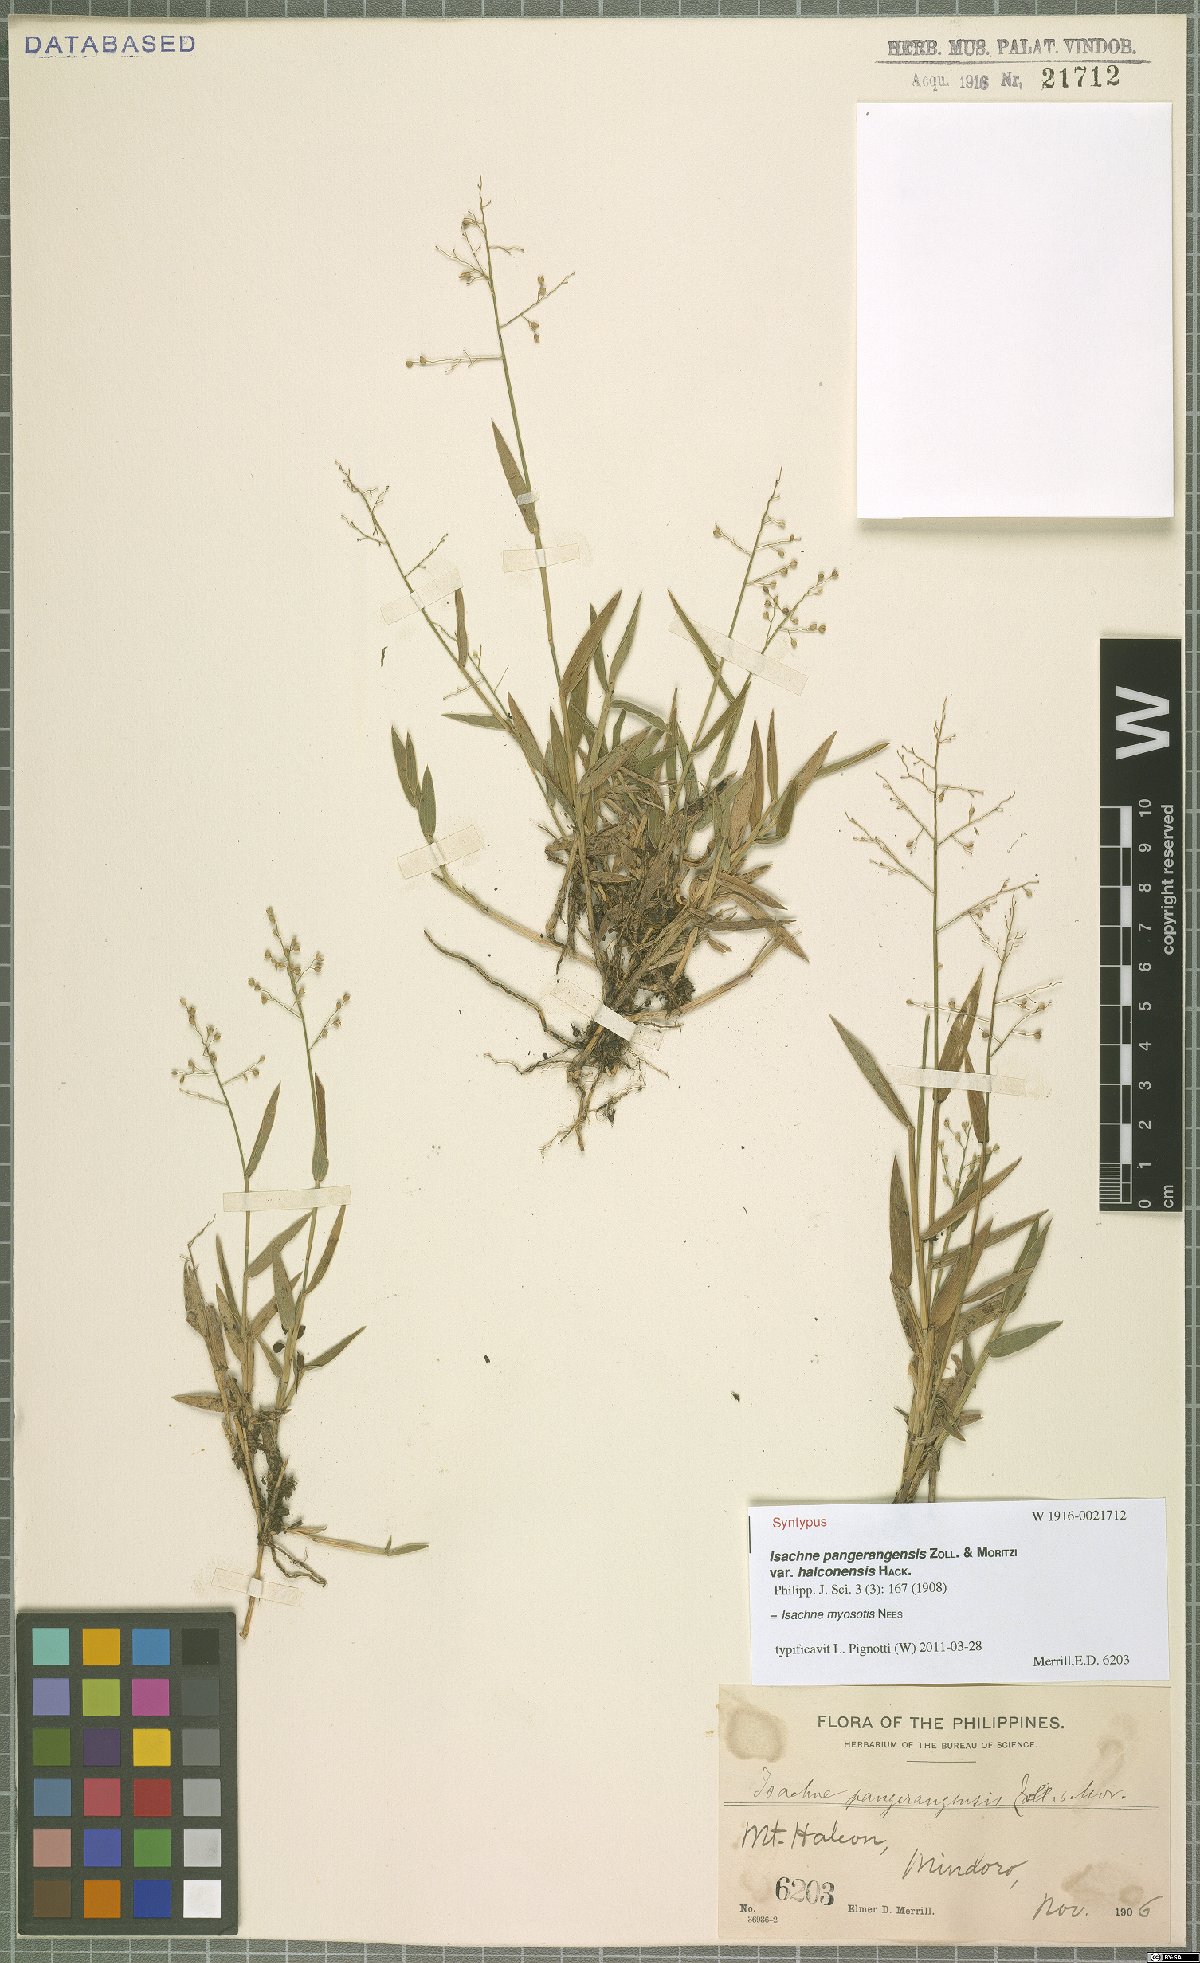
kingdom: Plantae
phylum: Tracheophyta
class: Liliopsida
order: Poales
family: Poaceae
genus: Isachne
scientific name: Isachne myosotis
